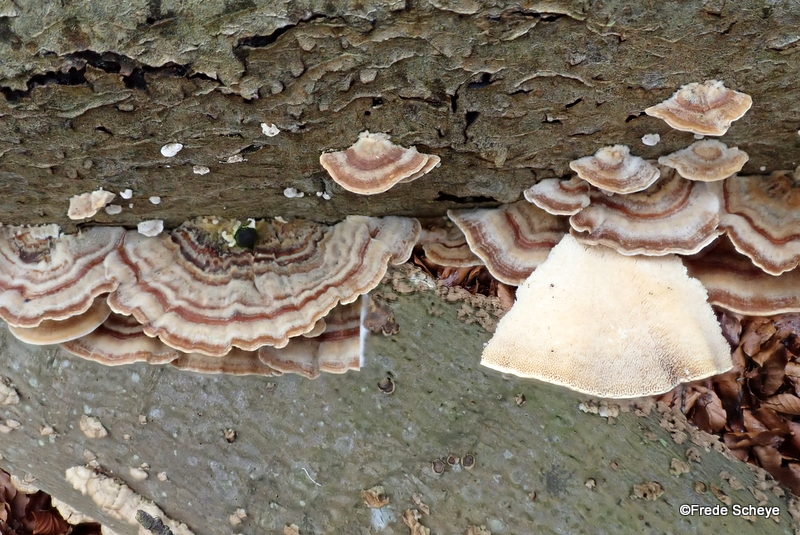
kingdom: Fungi
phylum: Basidiomycota
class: Agaricomycetes
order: Polyporales
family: Polyporaceae
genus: Trametes
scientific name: Trametes versicolor
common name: broget læderporesvamp
